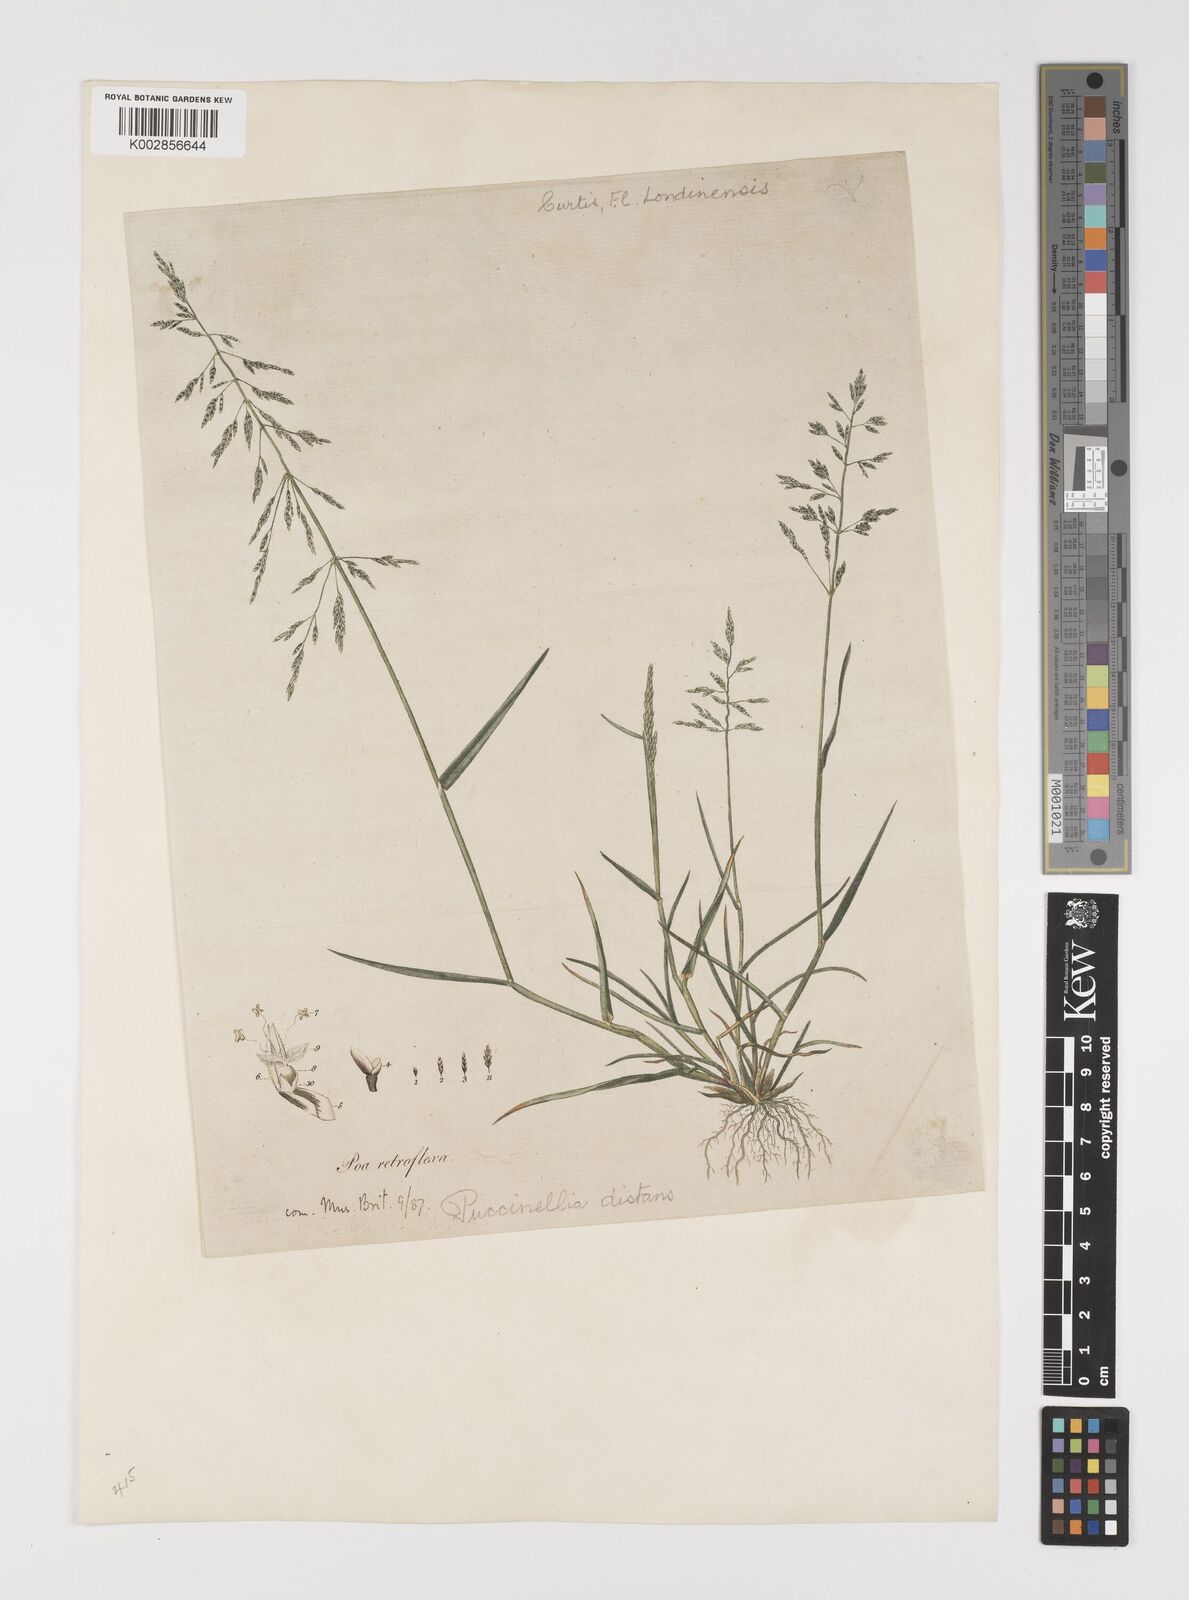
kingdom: Plantae
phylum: Tracheophyta
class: Liliopsida
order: Poales
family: Poaceae
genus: Puccinellia
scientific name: Puccinellia distans
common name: Weeping alkaligrass
